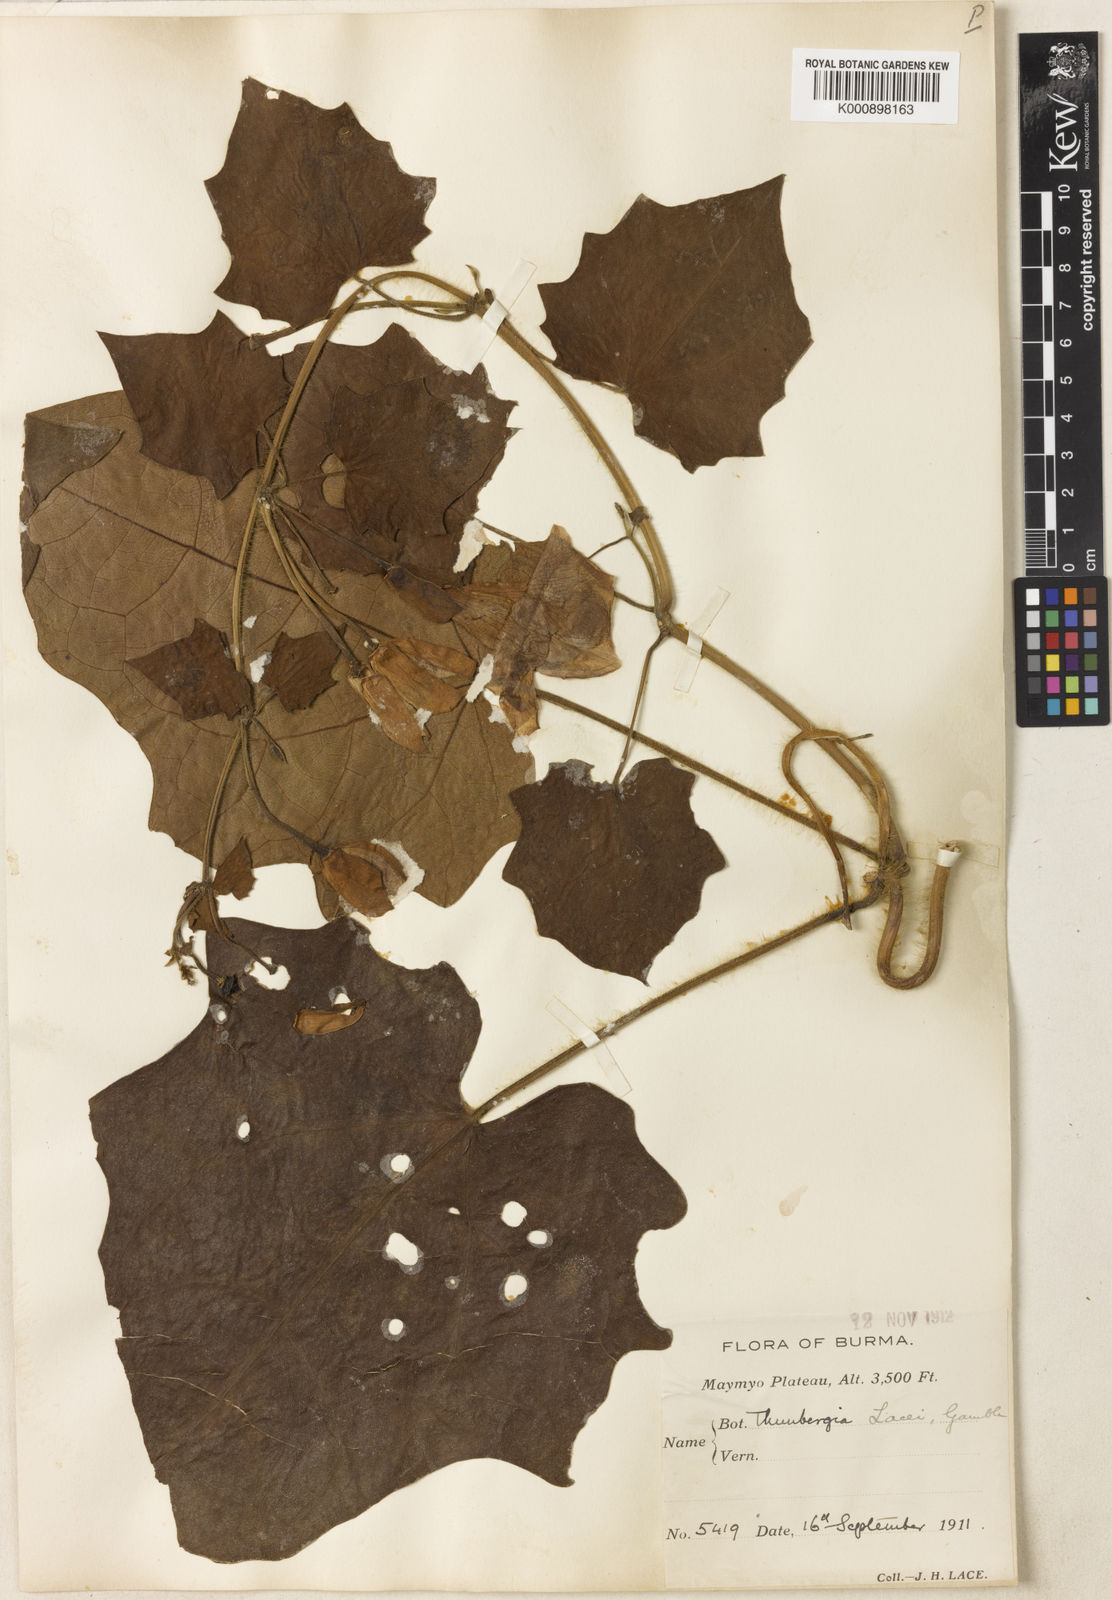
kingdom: Plantae
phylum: Tracheophyta
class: Magnoliopsida
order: Lamiales
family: Acanthaceae
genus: Thunbergia
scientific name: Thunbergia grandiflora
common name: Bengal trumpet
